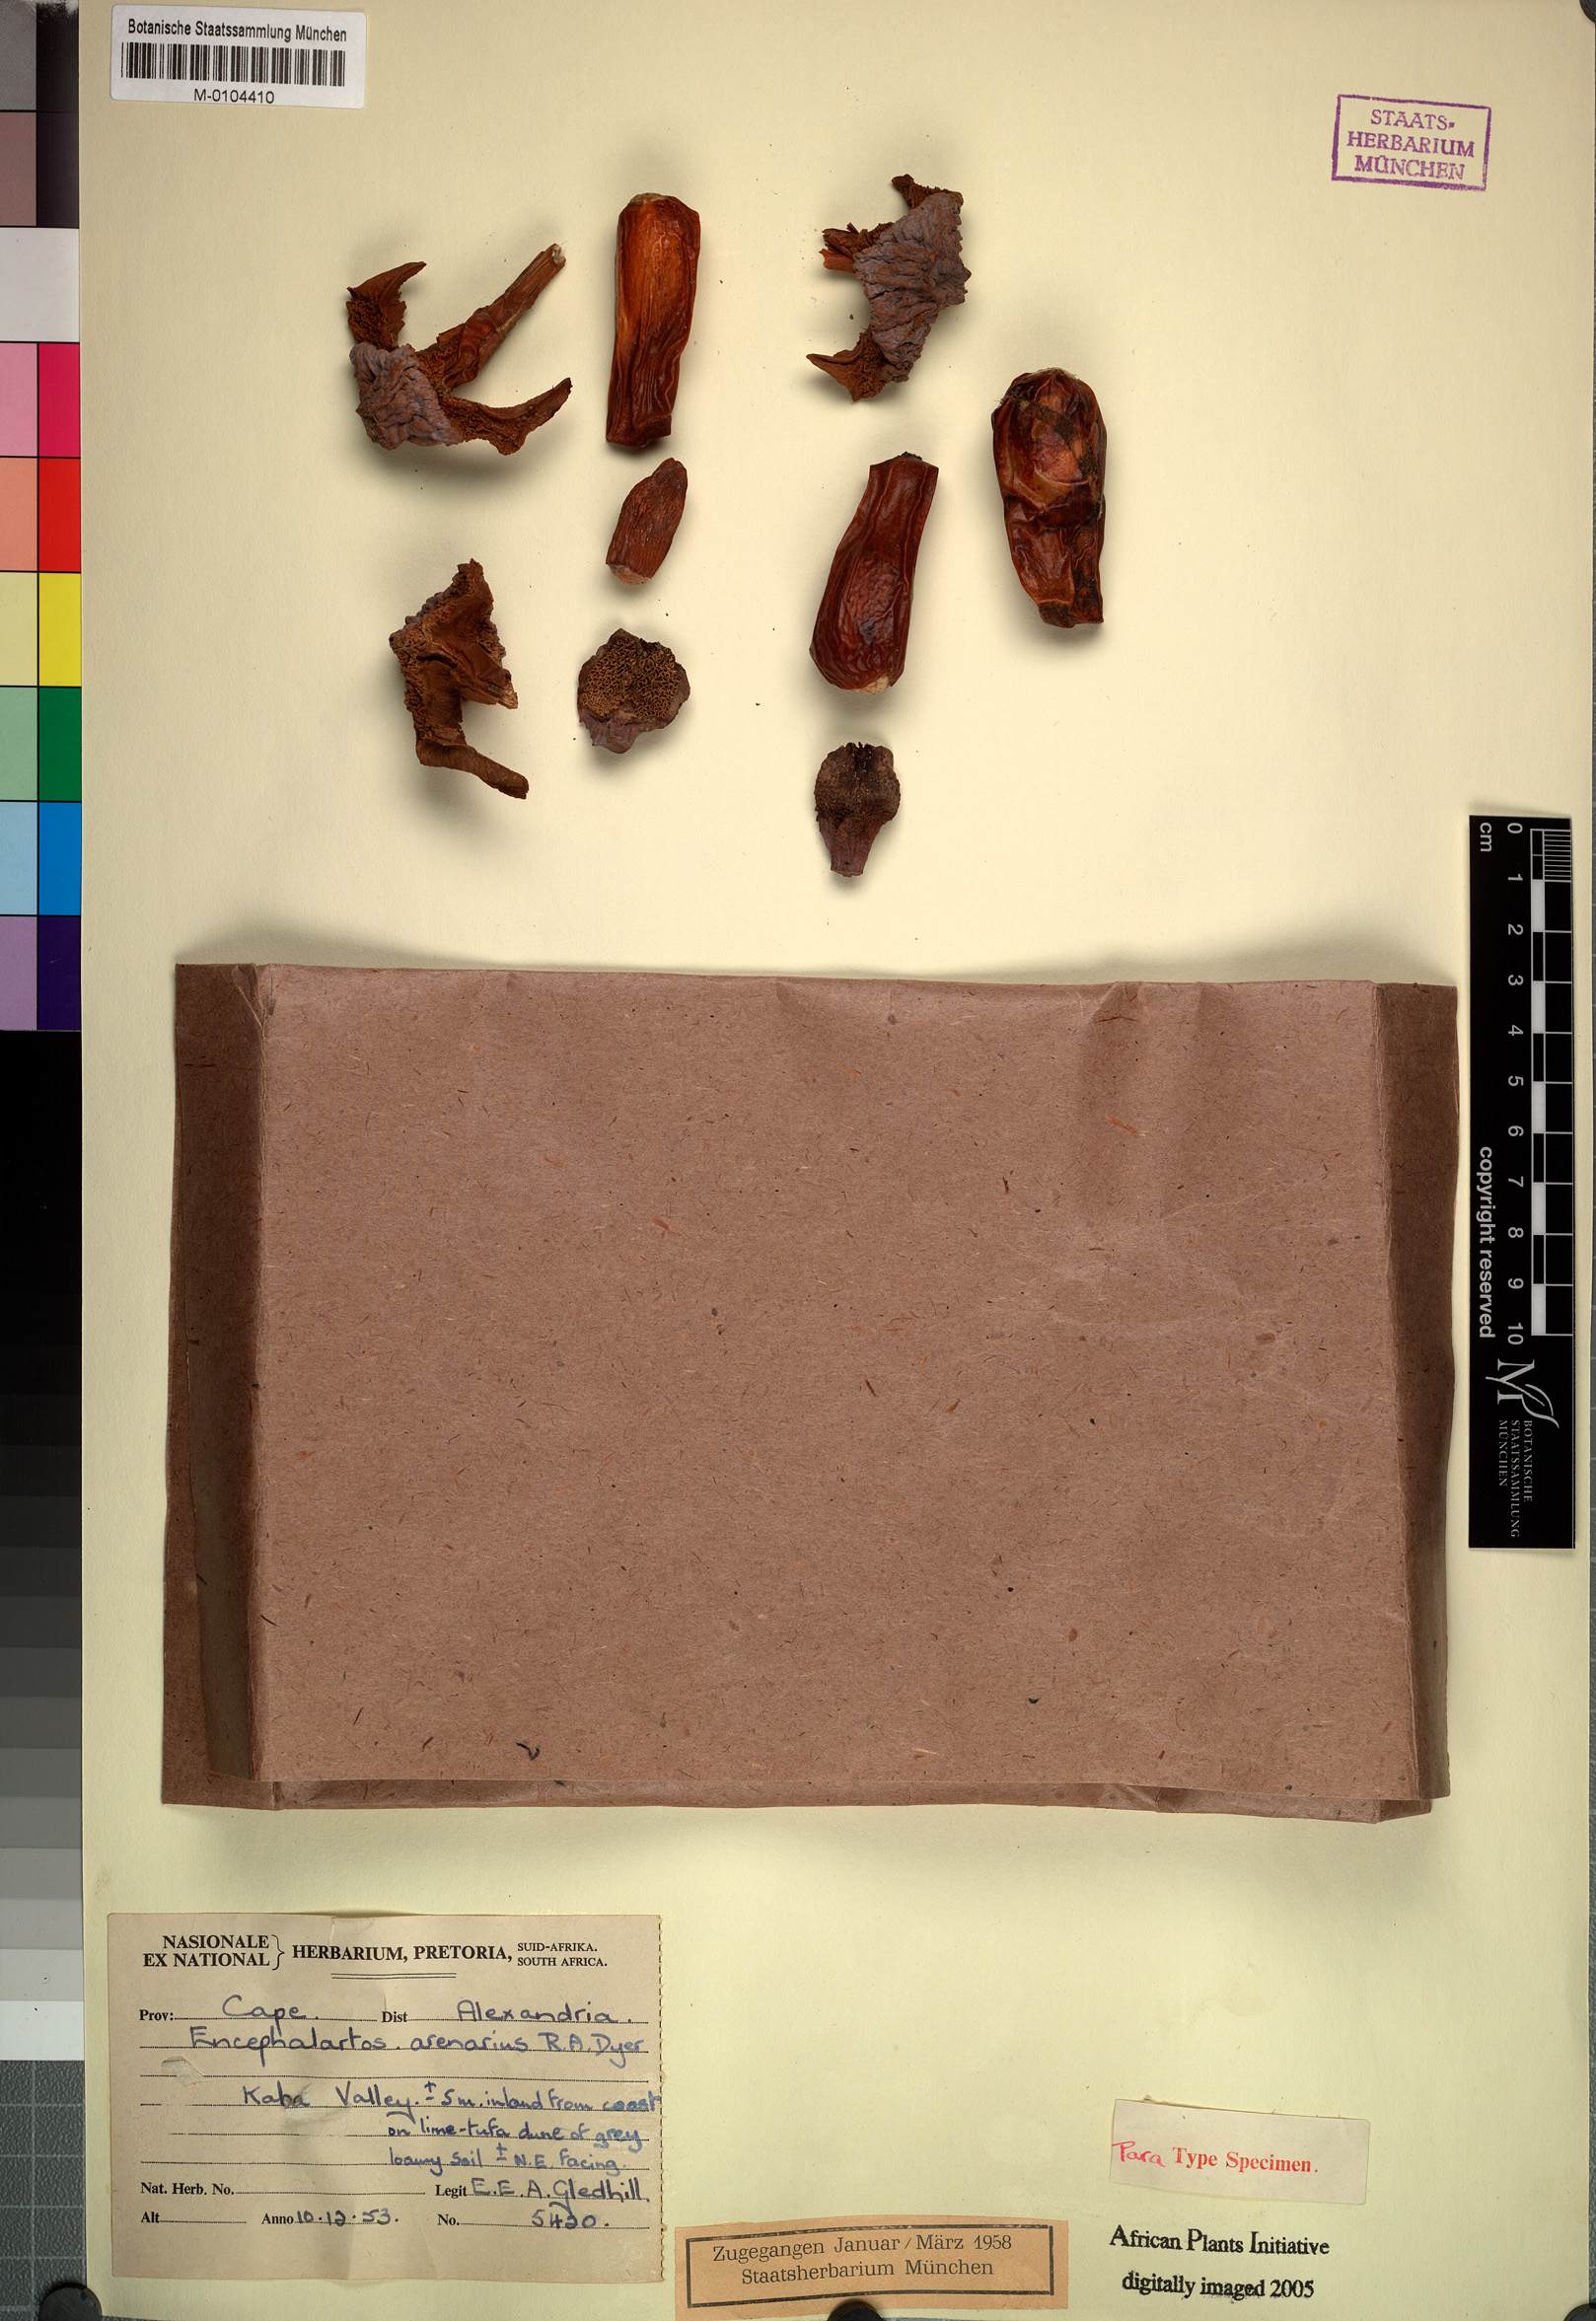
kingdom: Plantae
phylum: Tracheophyta
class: Cycadopsida
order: Cycadales
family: Zamiaceae
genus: Encephalartos
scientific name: Encephalartos arenarius
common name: Alexandria cycad
